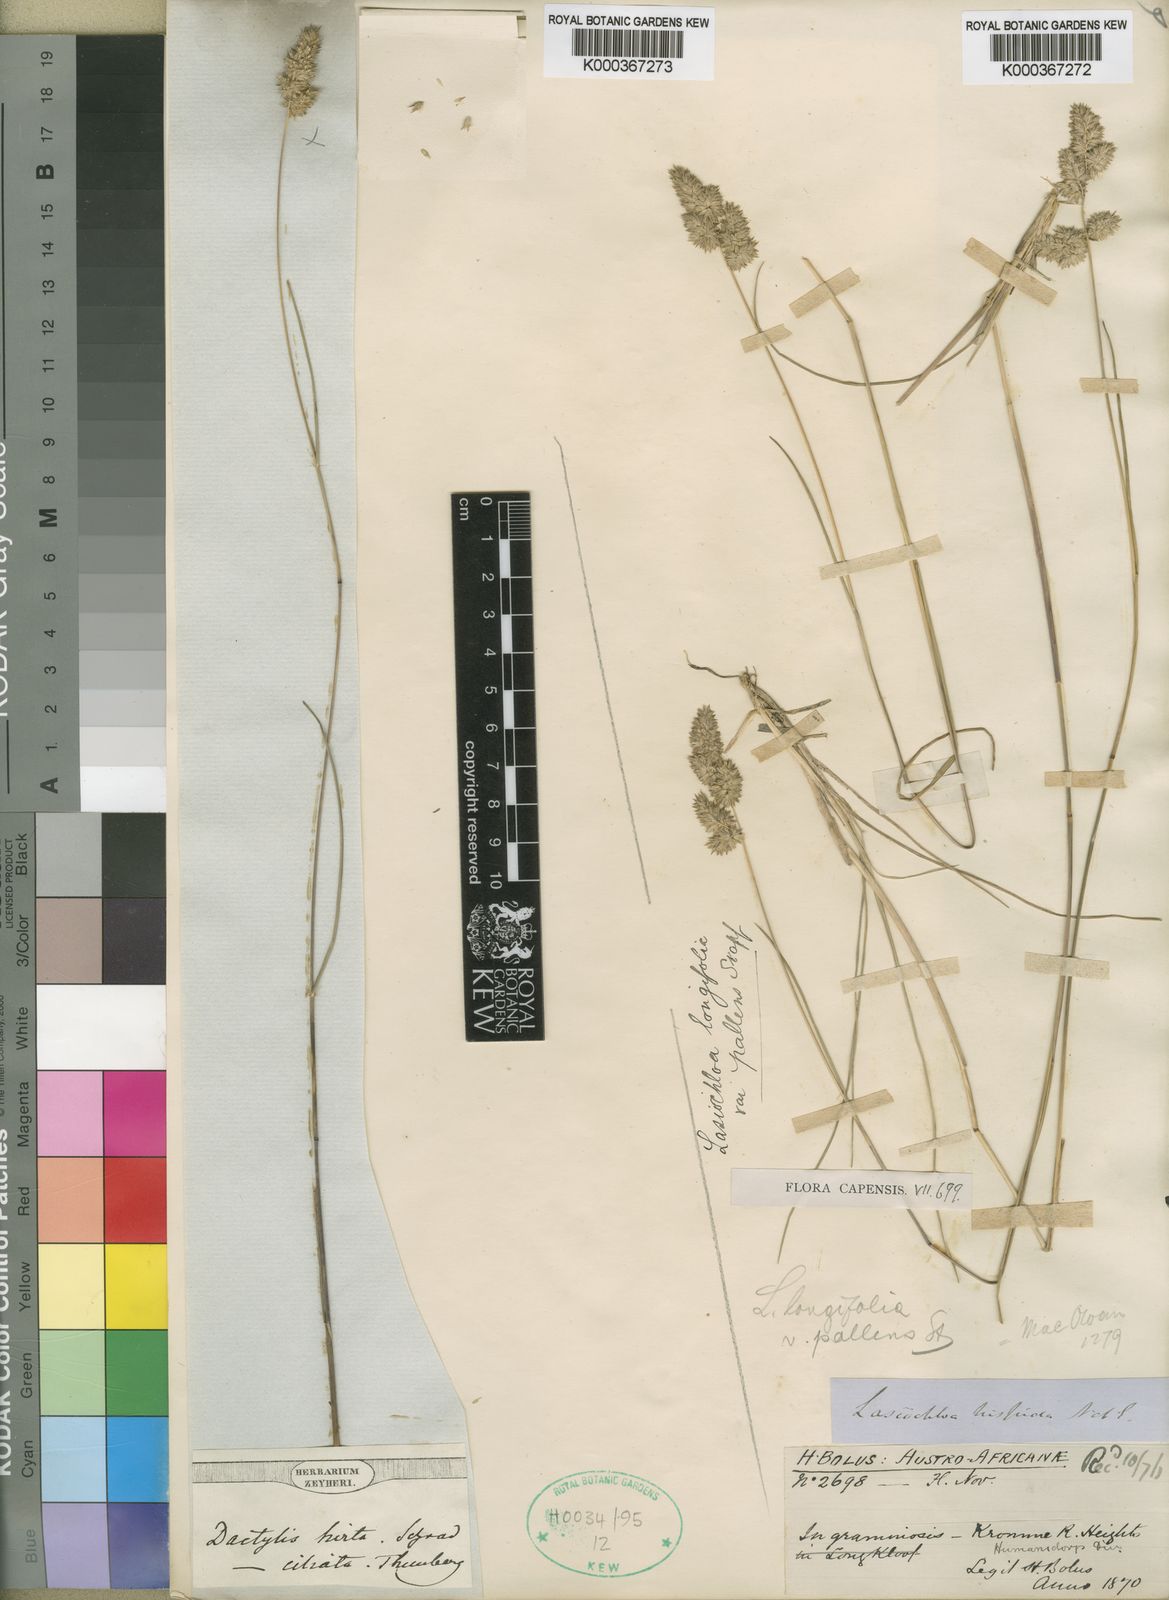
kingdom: Plantae
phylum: Tracheophyta
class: Liliopsida
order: Poales
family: Poaceae
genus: Tribolium
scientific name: Tribolium hispidum
